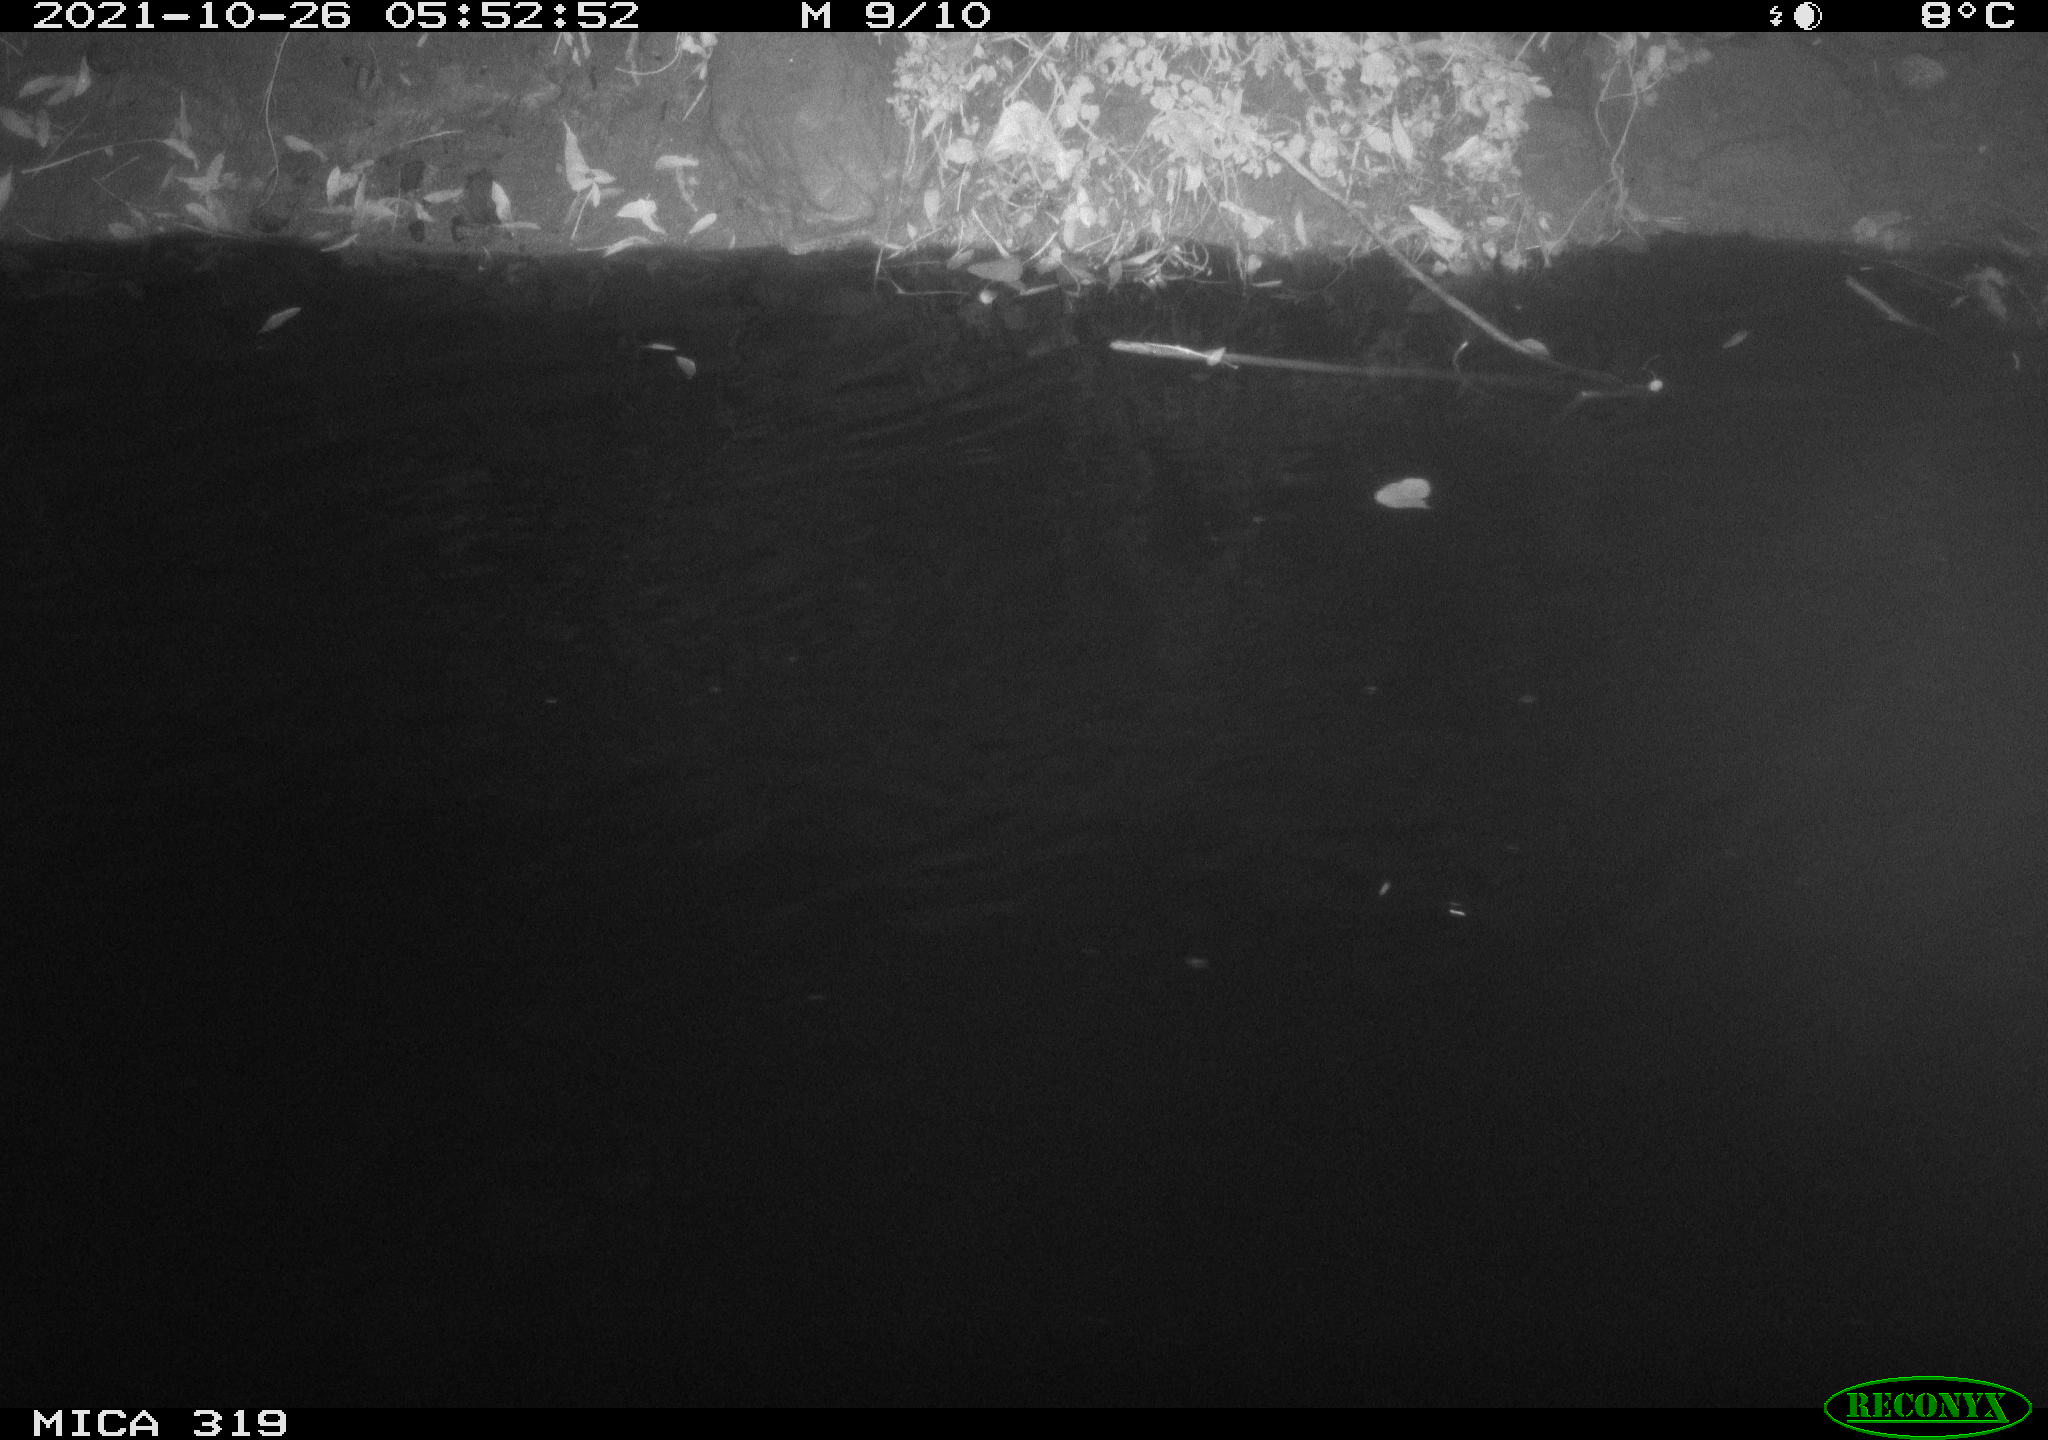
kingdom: Animalia
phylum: Chordata
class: Aves
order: Anseriformes
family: Anatidae
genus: Anas
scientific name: Anas platyrhynchos
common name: Mallard
